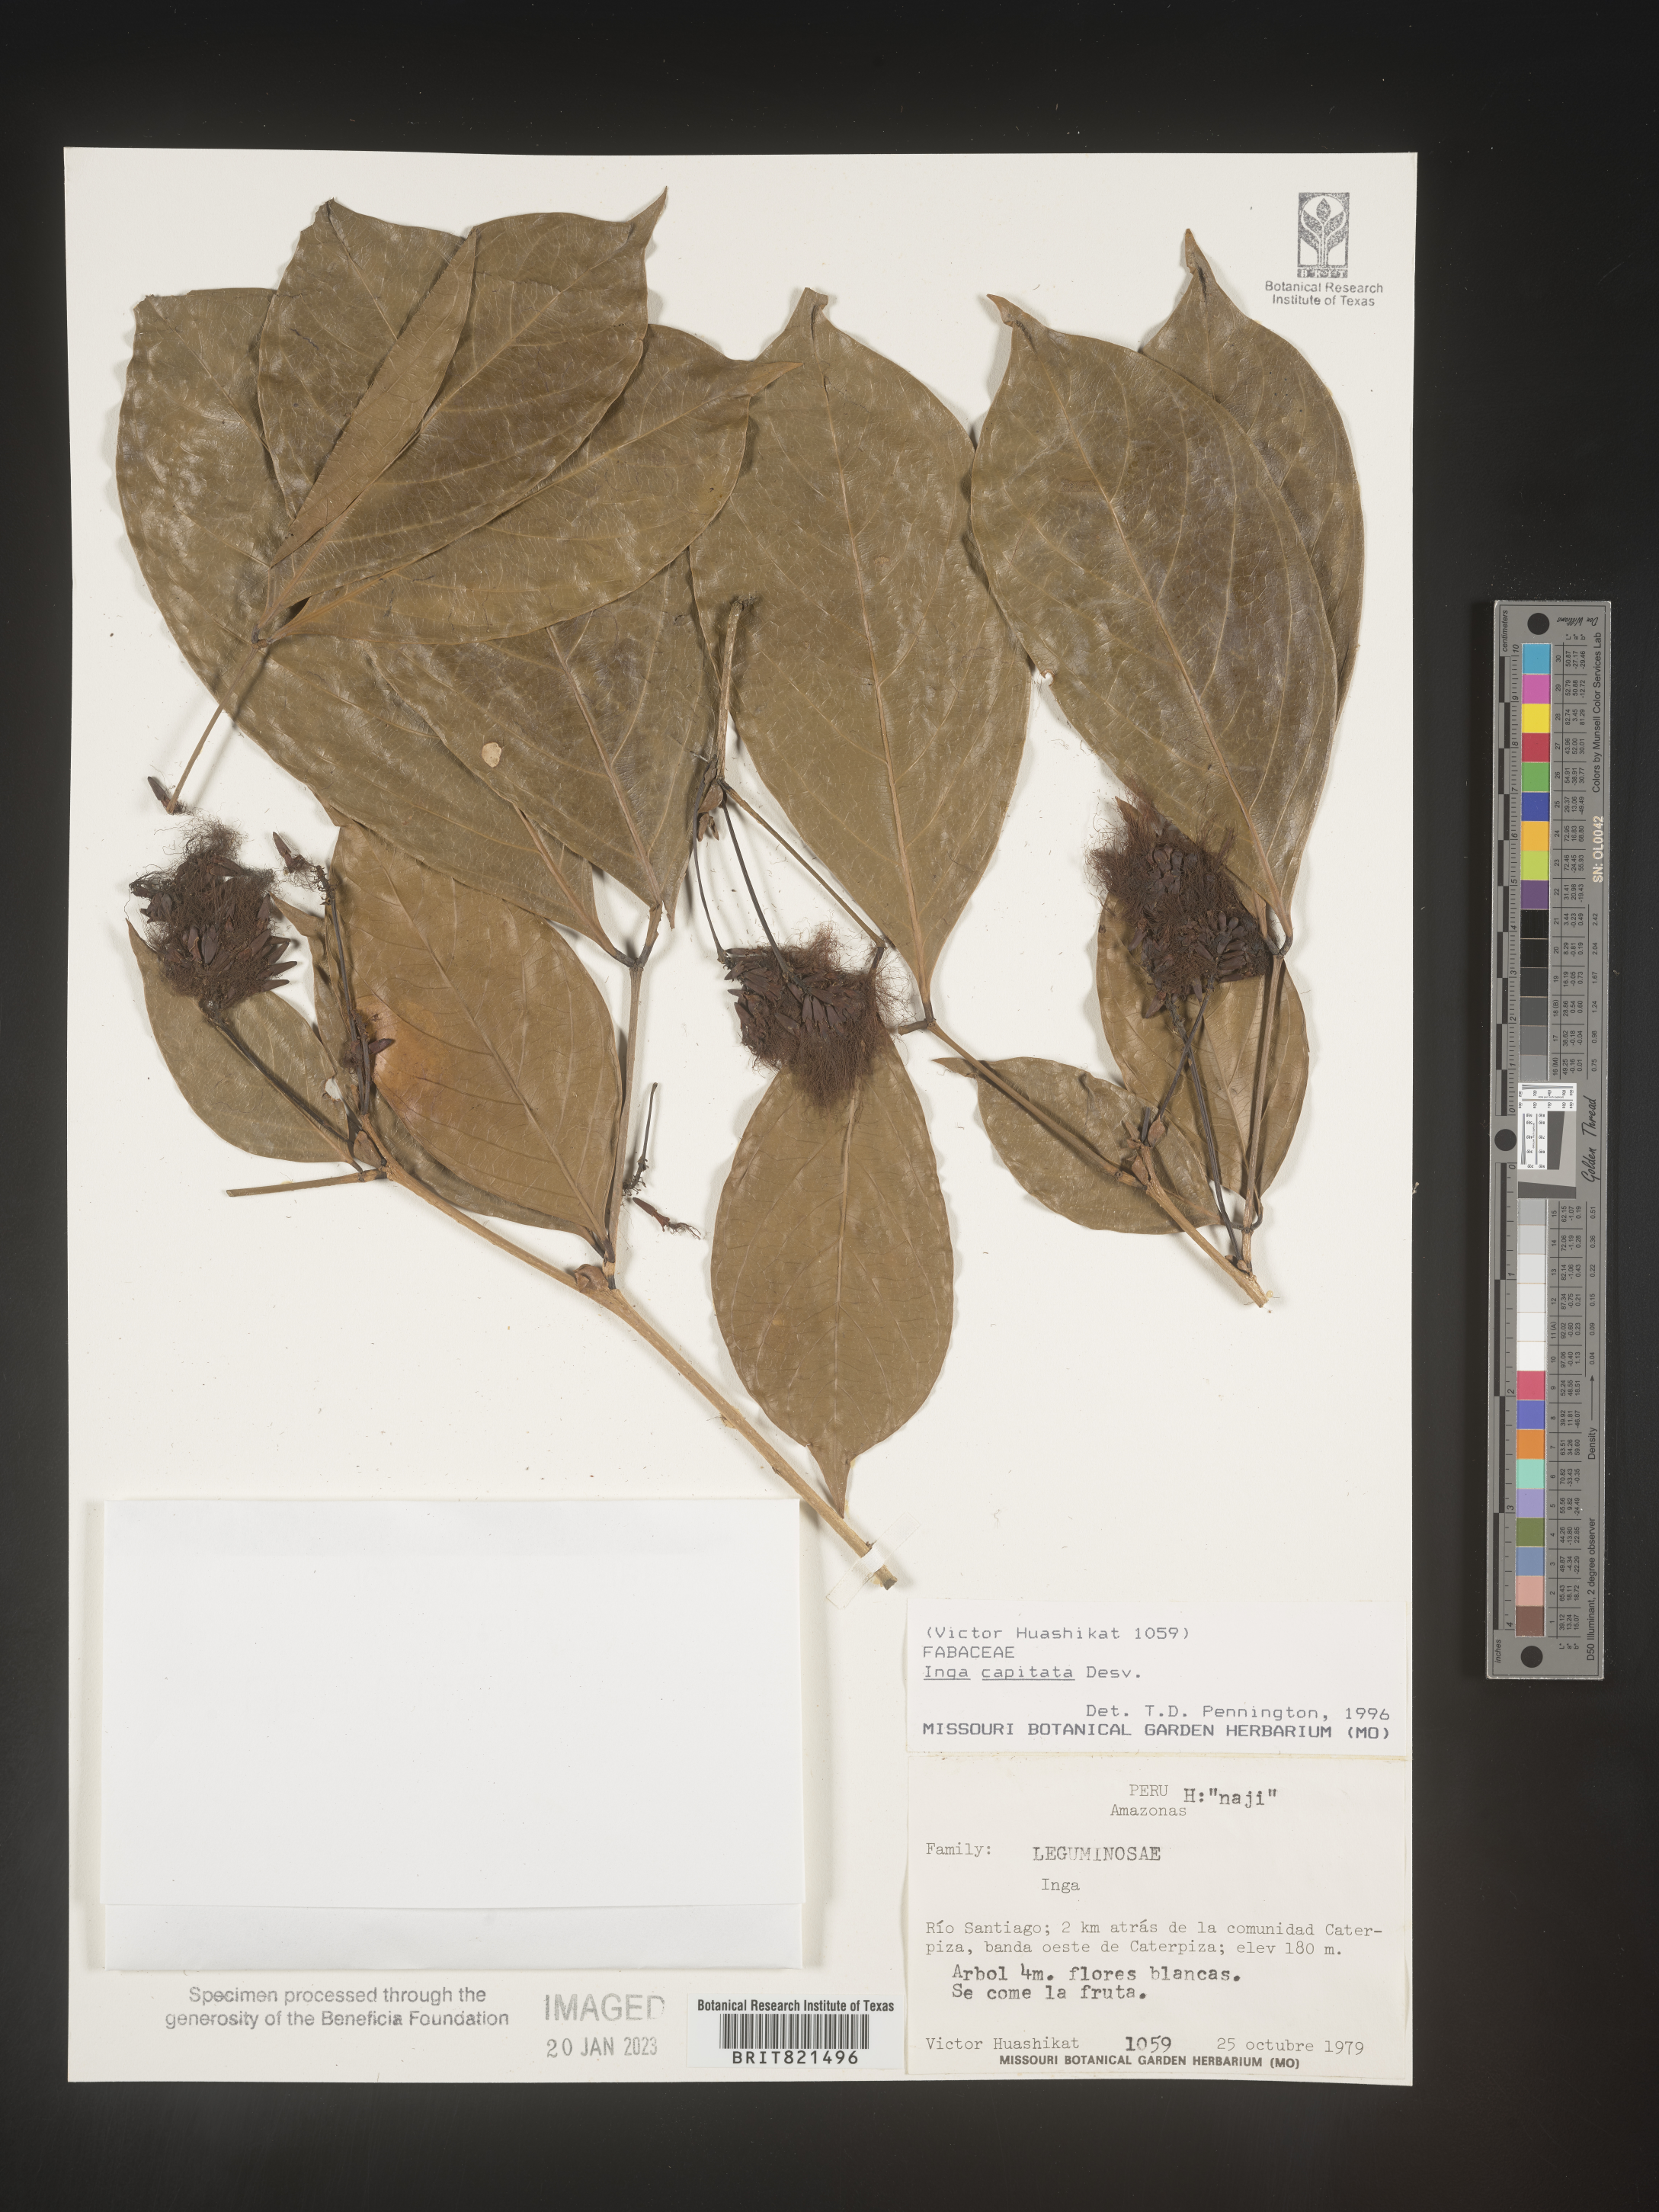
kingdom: Plantae
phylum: Tracheophyta
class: Magnoliopsida
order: Fabales
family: Fabaceae
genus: Inga
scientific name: Inga
